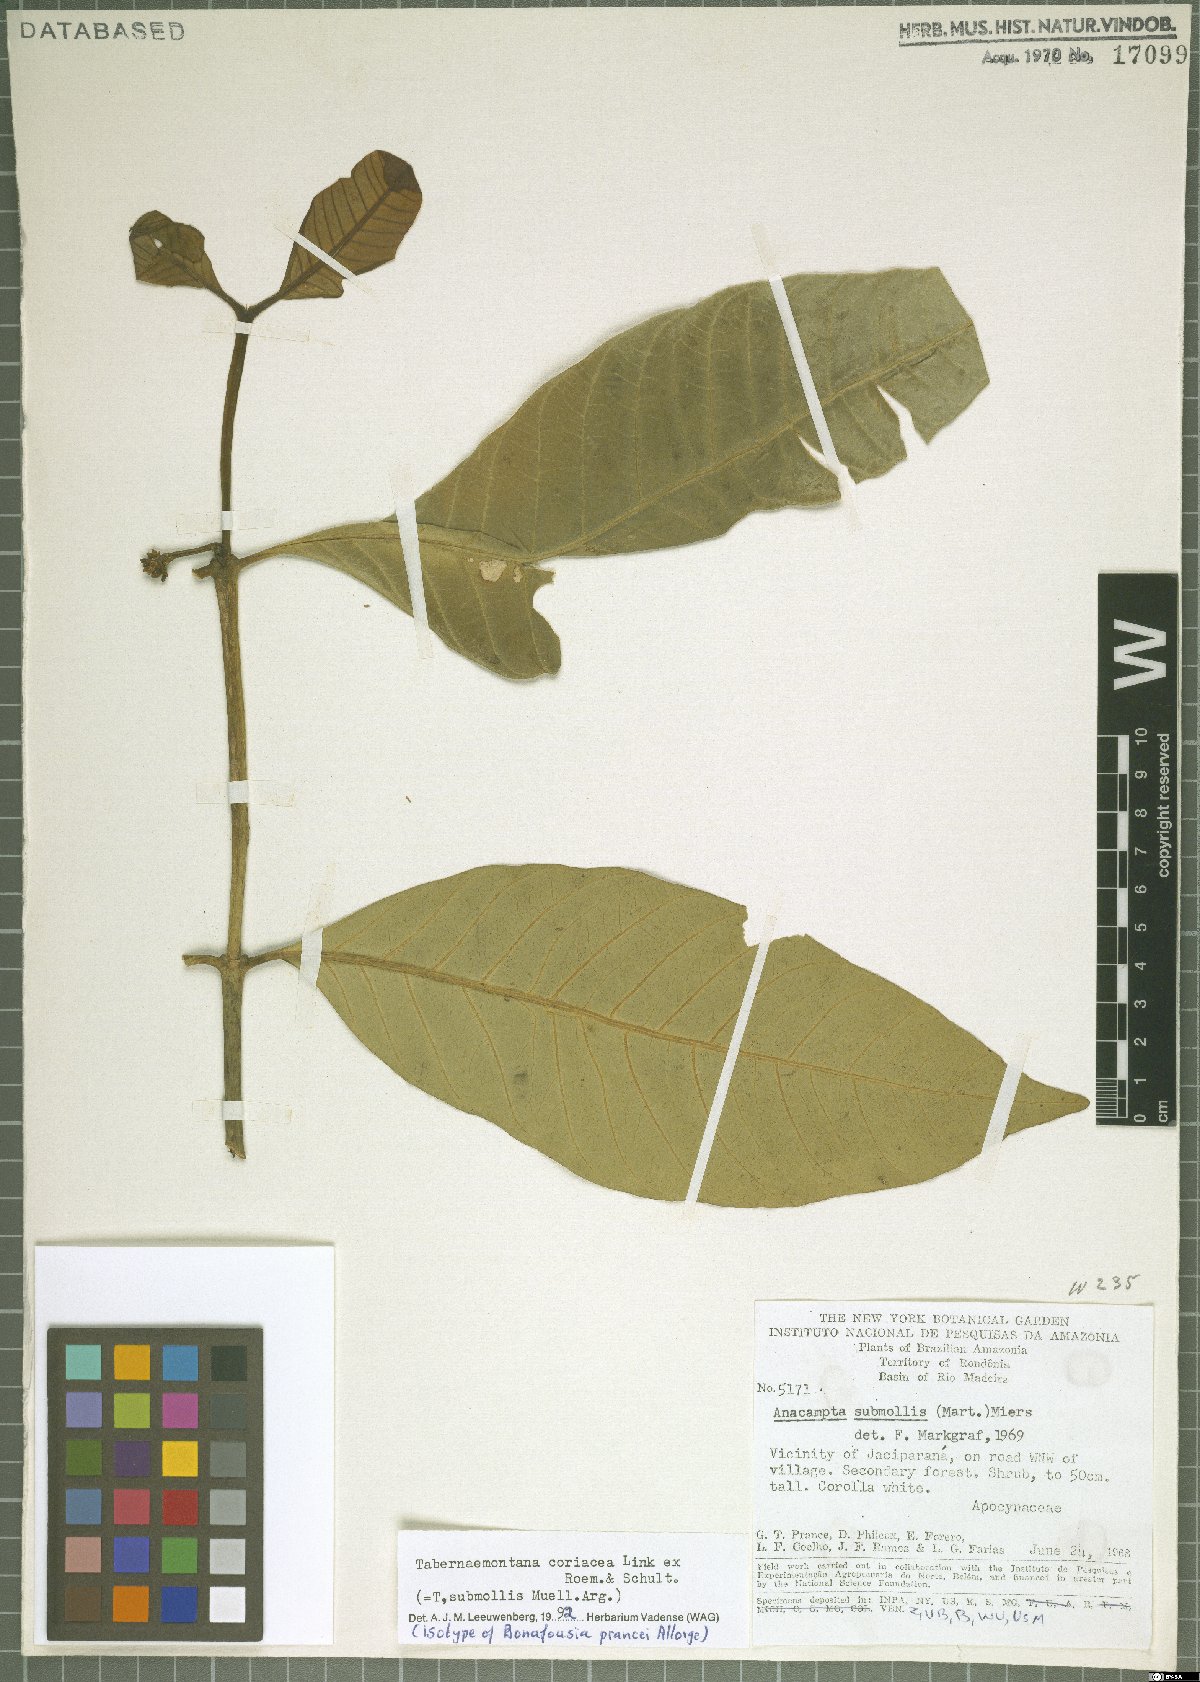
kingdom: Plantae
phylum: Tracheophyta
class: Magnoliopsida
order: Gentianales
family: Apocynaceae
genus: Tabernaemontana
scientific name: Tabernaemontana coriacea
